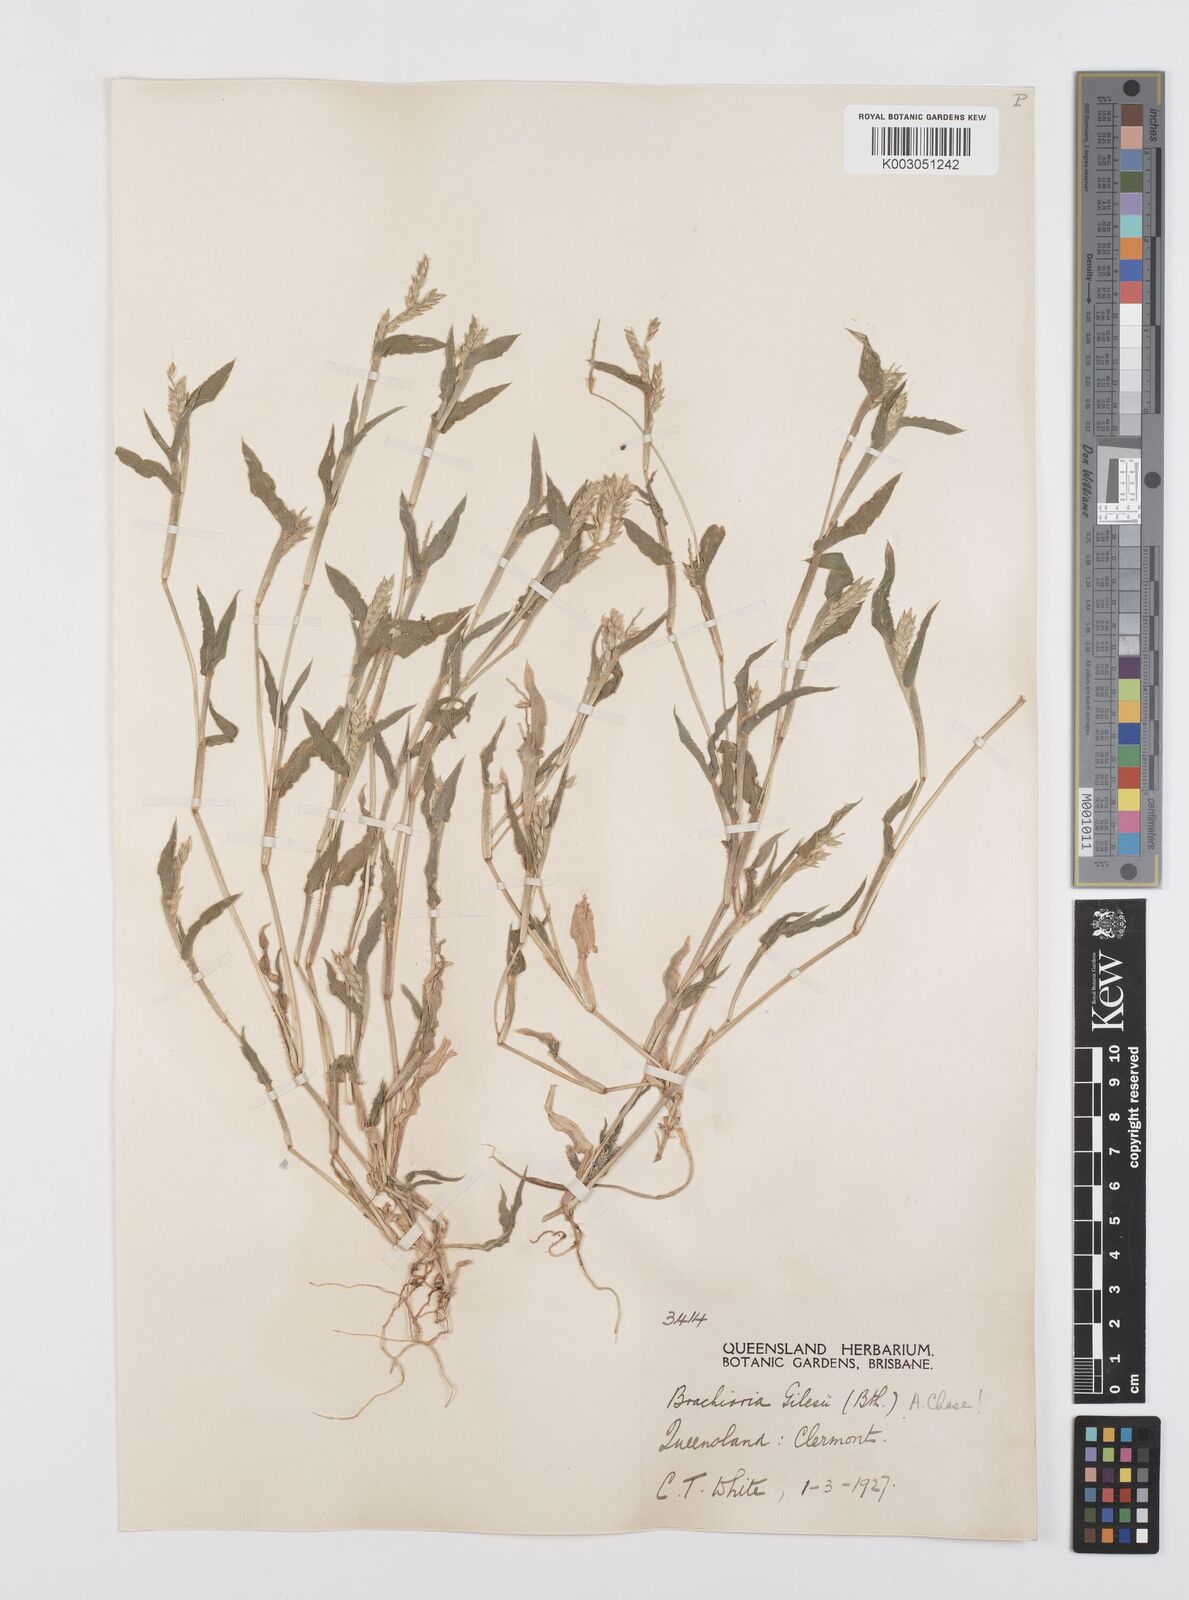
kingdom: Plantae
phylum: Tracheophyta
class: Liliopsida
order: Poales
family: Poaceae
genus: Urochloa
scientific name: Urochloa gilesii
